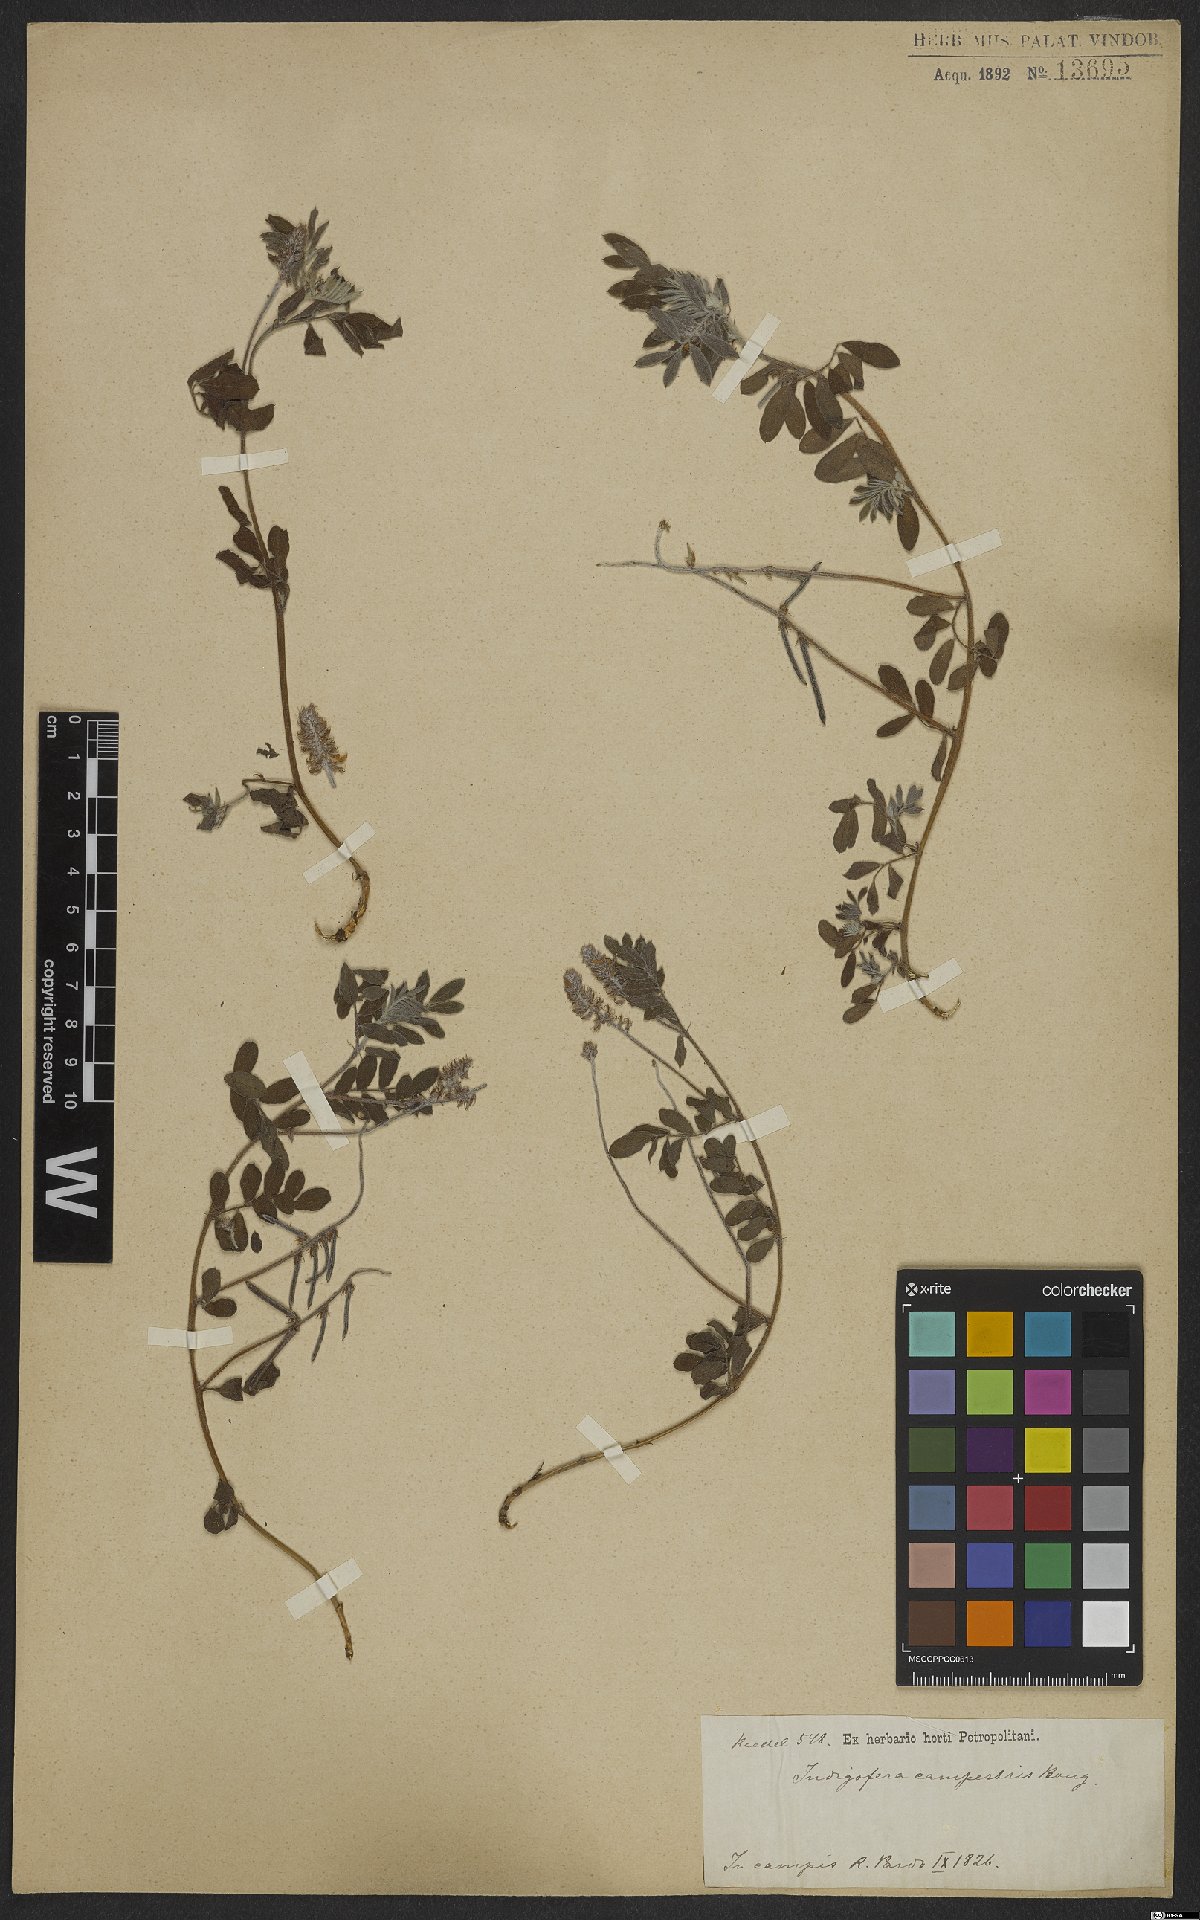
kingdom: Plantae
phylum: Tracheophyta
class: Magnoliopsida
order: Fabales
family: Fabaceae
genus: Indigofera
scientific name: Indigofera campestris
